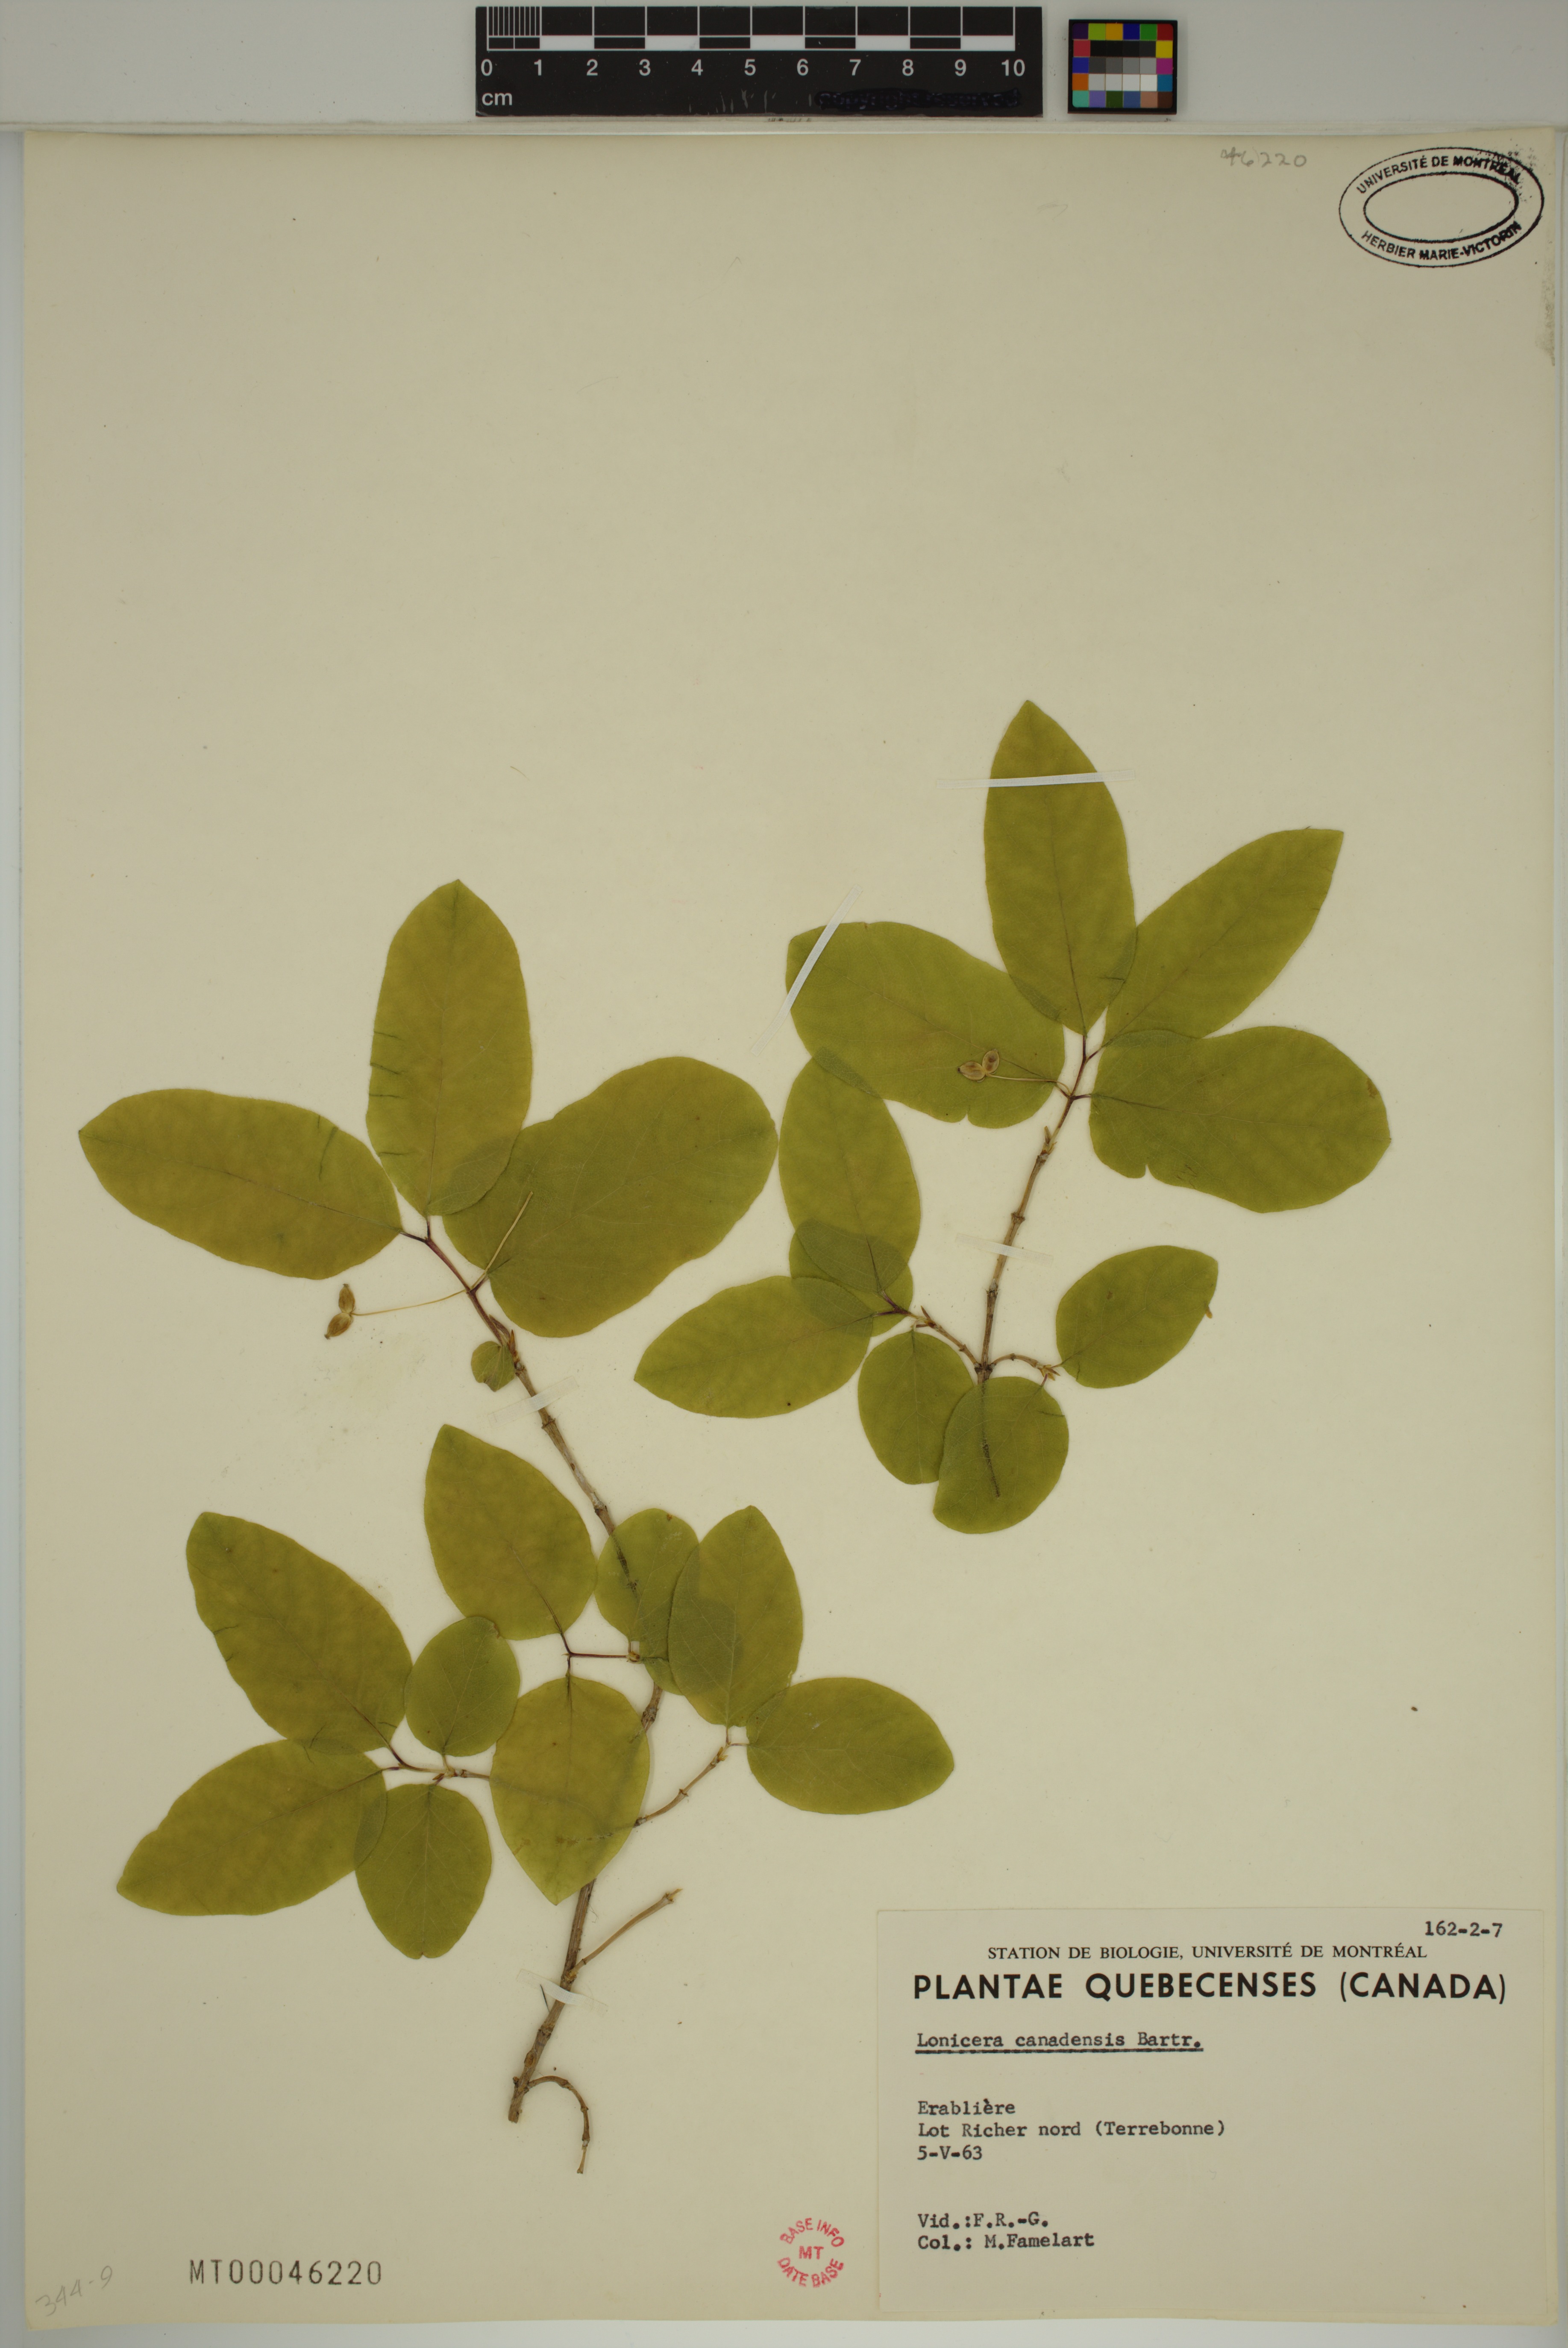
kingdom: Plantae
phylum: Tracheophyta
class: Magnoliopsida
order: Dipsacales
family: Caprifoliaceae
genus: Lonicera
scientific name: Lonicera canadensis
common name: American fly-honeysuckle
